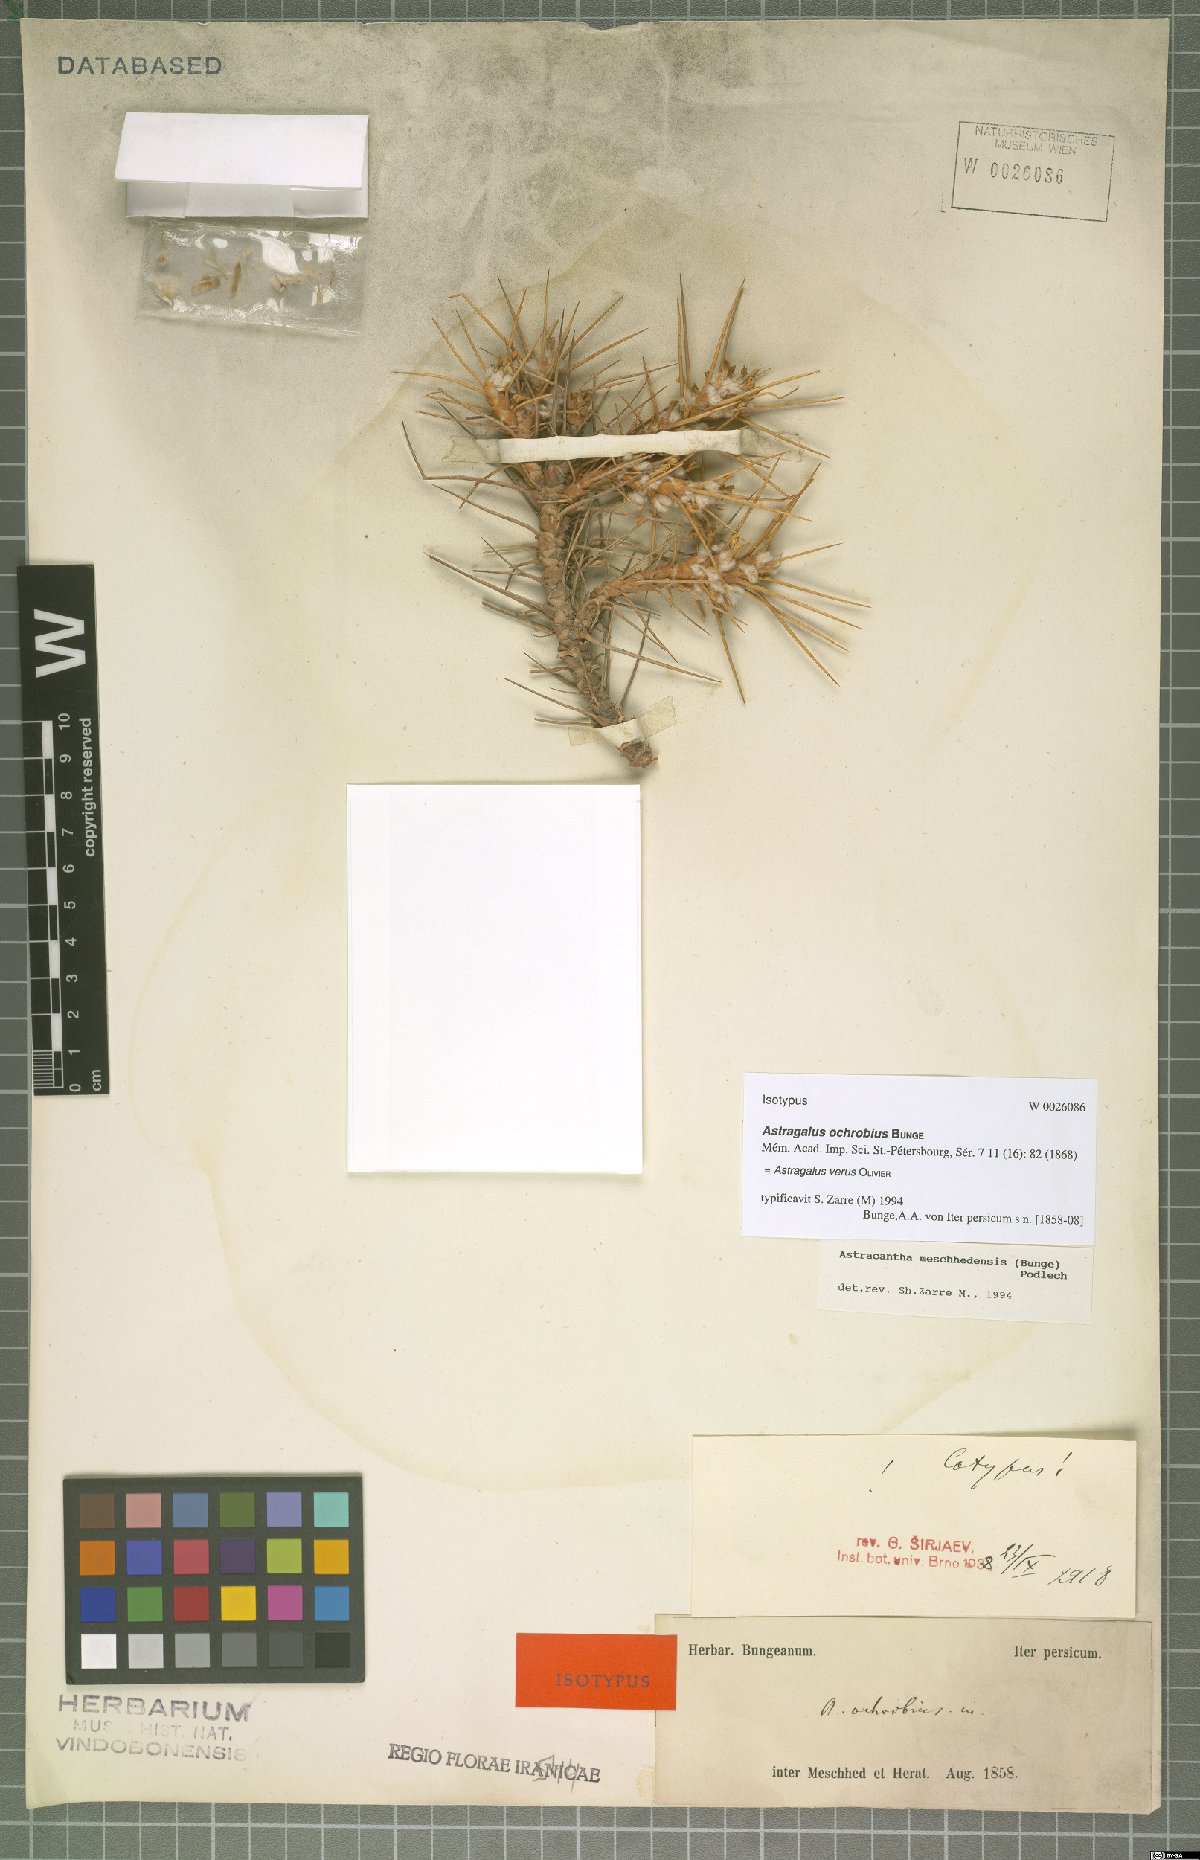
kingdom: Plantae
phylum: Tracheophyta
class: Magnoliopsida
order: Fabales
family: Fabaceae
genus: Astragalus
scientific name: Astragalus verus
